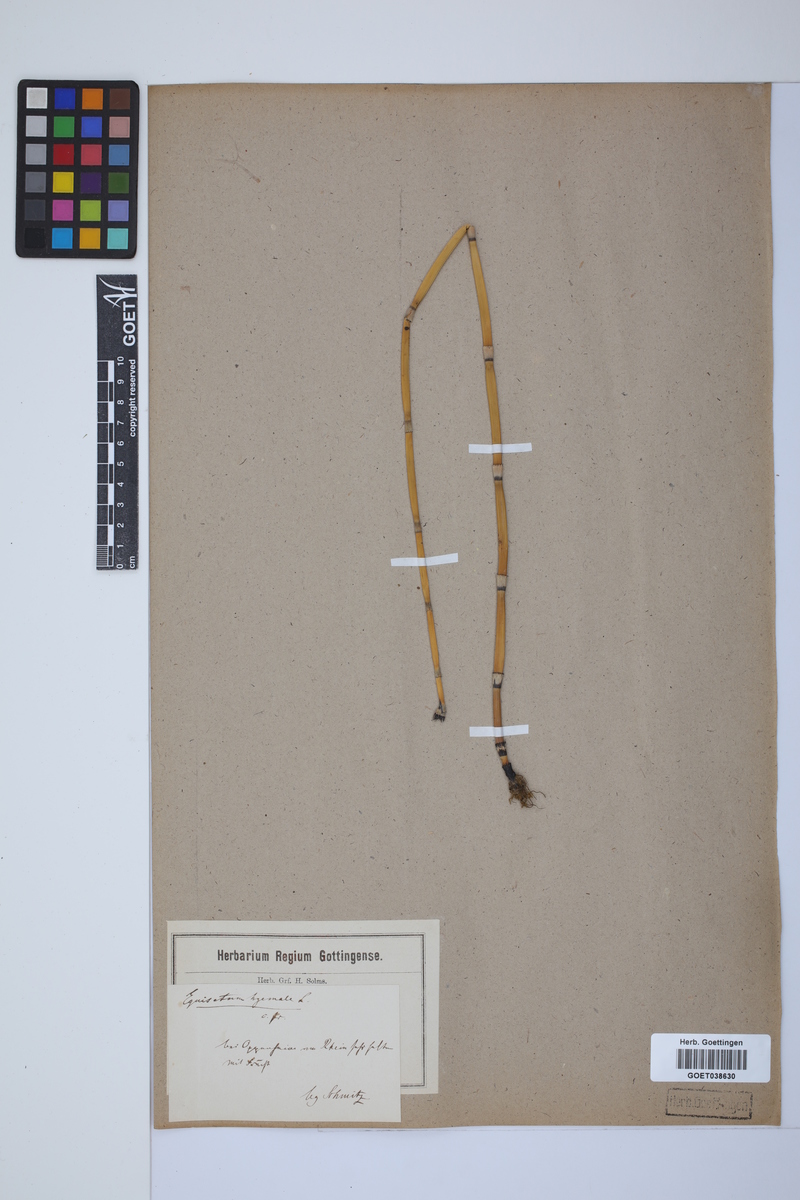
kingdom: Plantae
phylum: Tracheophyta
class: Polypodiopsida
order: Equisetales
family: Equisetaceae
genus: Equisetum
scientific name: Equisetum hyemale
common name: Rough horsetail
